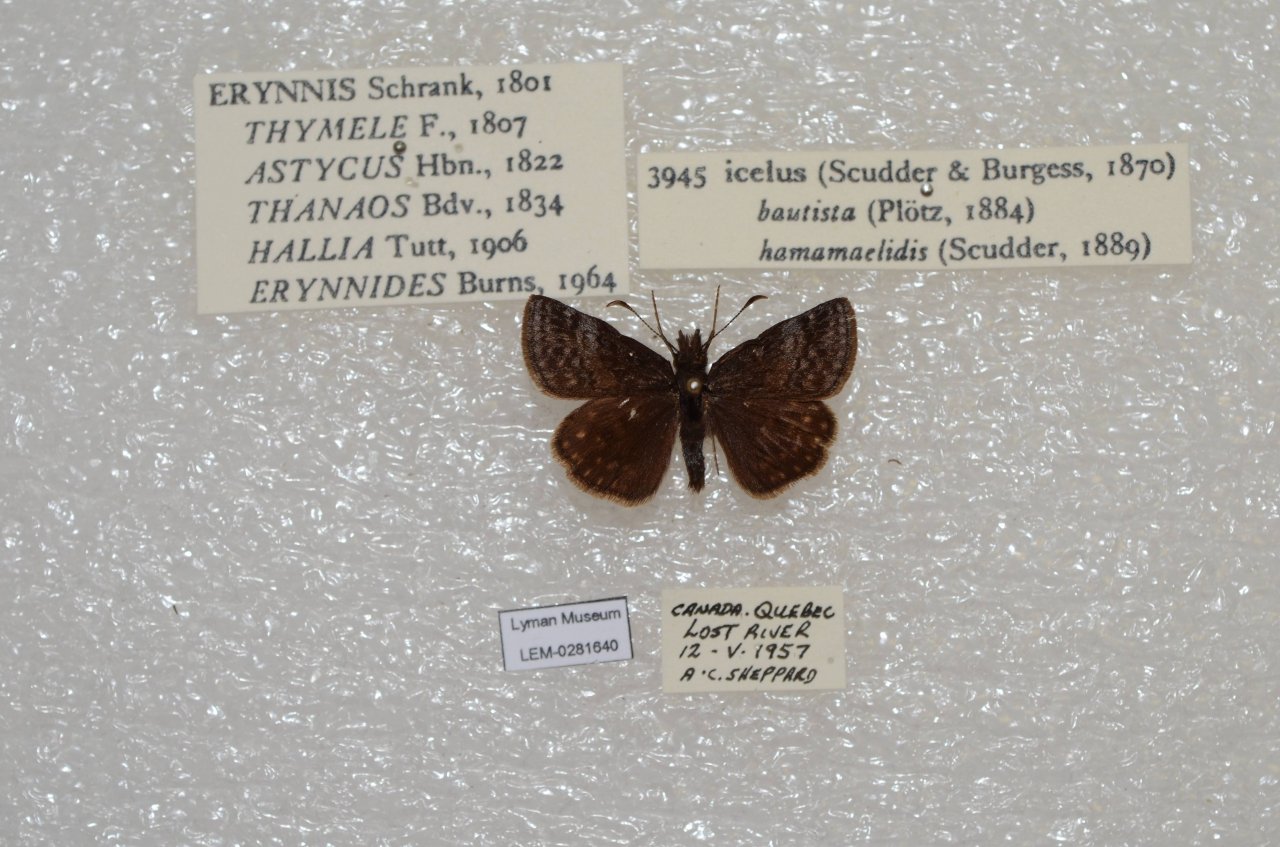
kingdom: Animalia
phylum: Arthropoda
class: Insecta
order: Lepidoptera
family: Hesperiidae
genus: Erynnis
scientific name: Erynnis icelus
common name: Dreamy Duskywing
